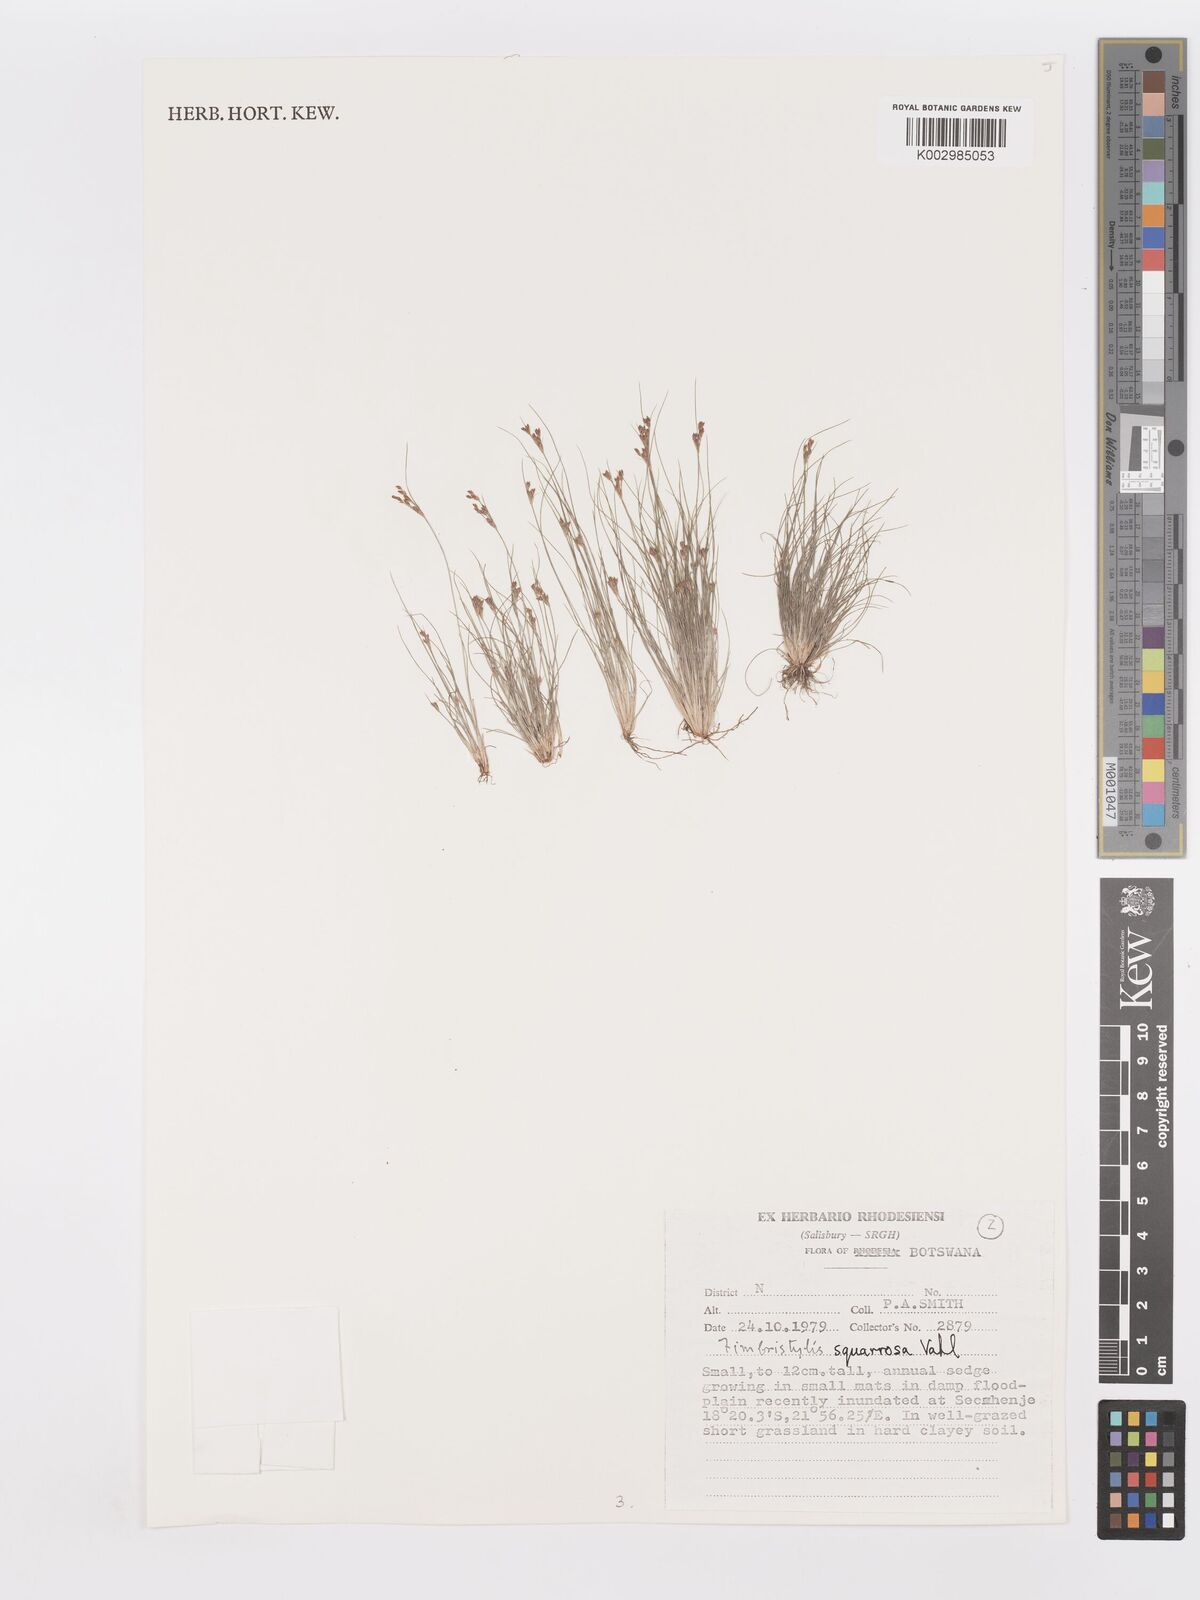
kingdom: Plantae
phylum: Tracheophyta
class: Liliopsida
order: Poales
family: Cyperaceae
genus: Fimbristylis
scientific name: Fimbristylis squarrosa
